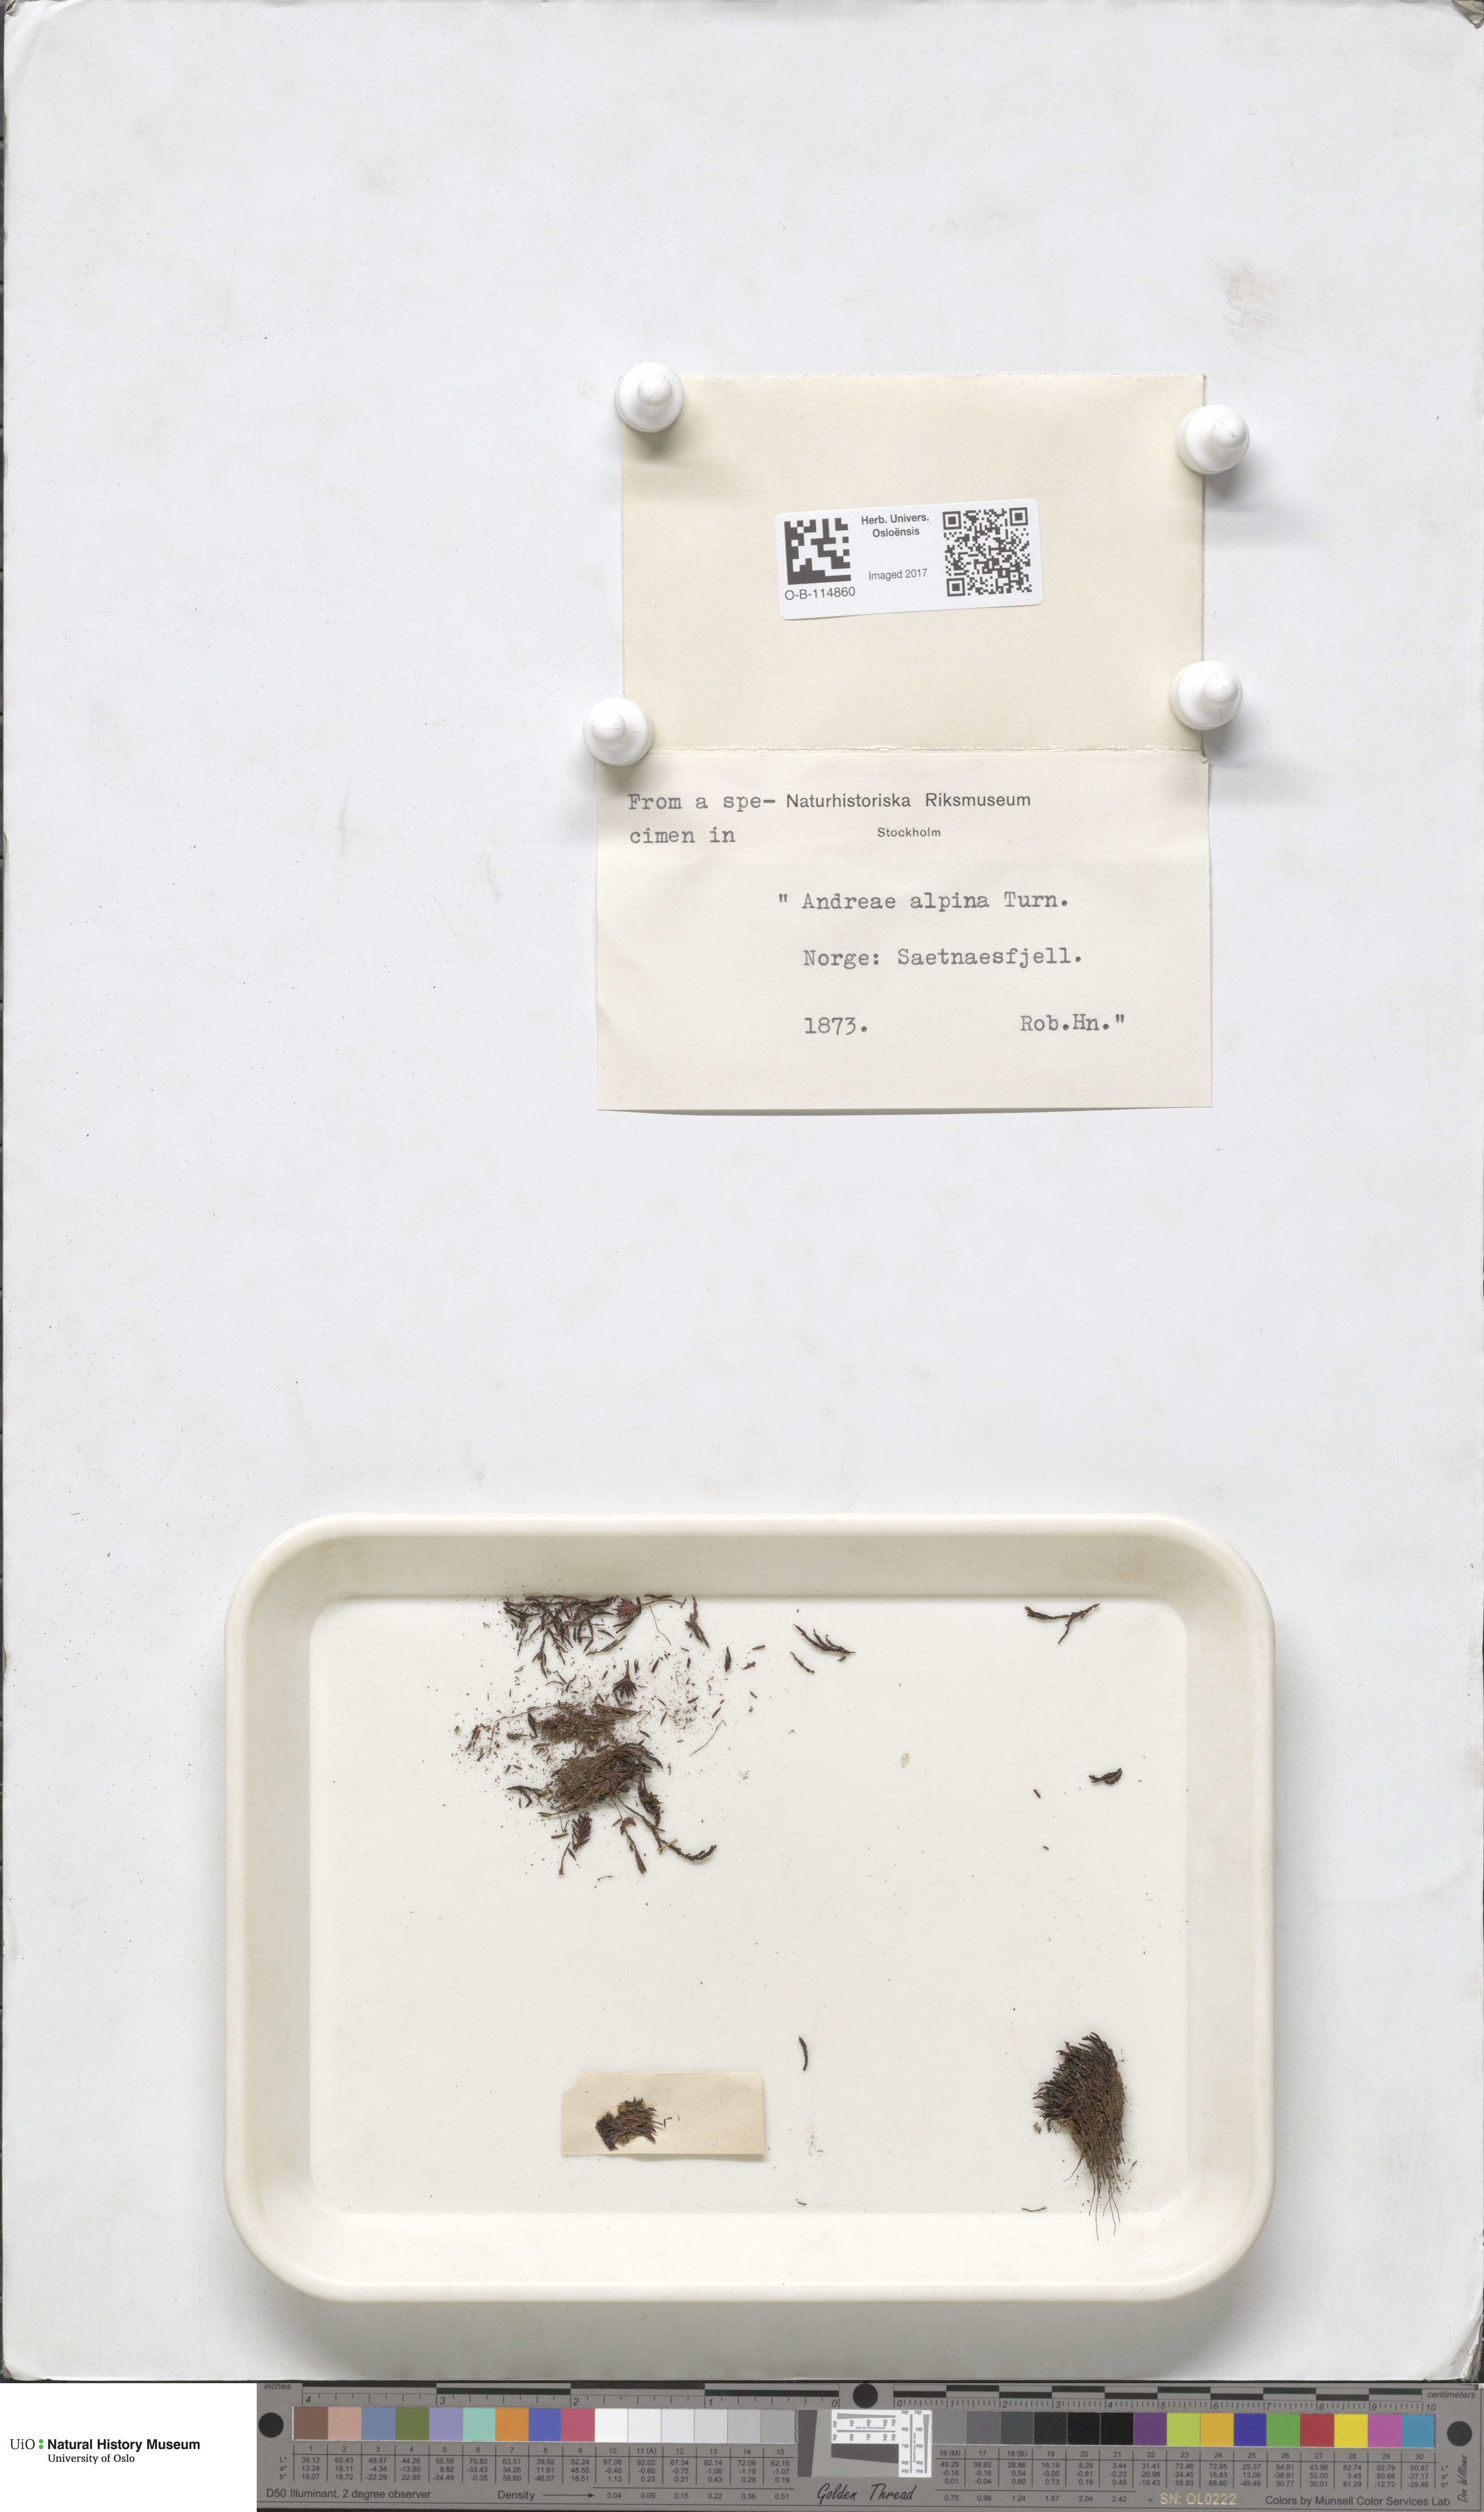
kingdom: Plantae
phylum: Bryophyta
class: Andreaeopsida
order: Andreaeales
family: Andreaeaceae
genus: Andreaea
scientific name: Andreaea hookeri
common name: Alpine rock-moss
